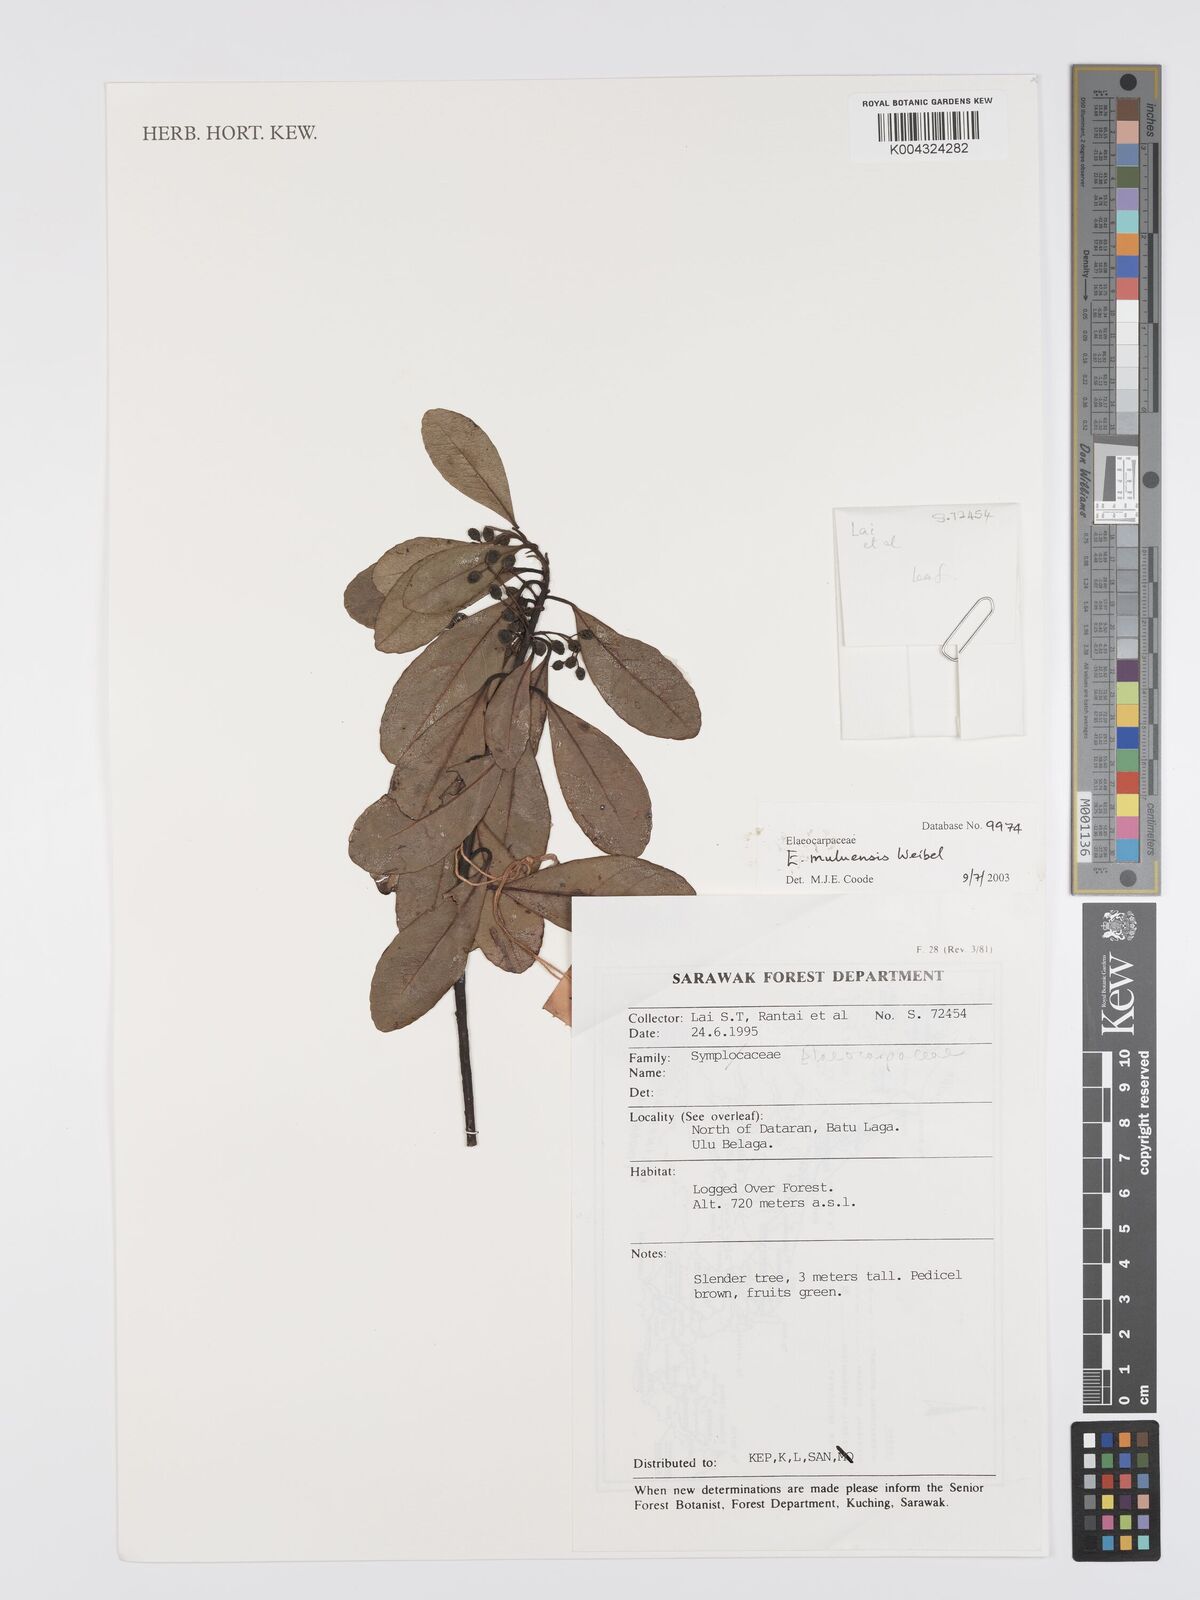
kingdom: Plantae
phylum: Tracheophyta
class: Magnoliopsida
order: Oxalidales
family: Elaeocarpaceae
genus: Elaeocarpus
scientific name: Elaeocarpus muluensis
